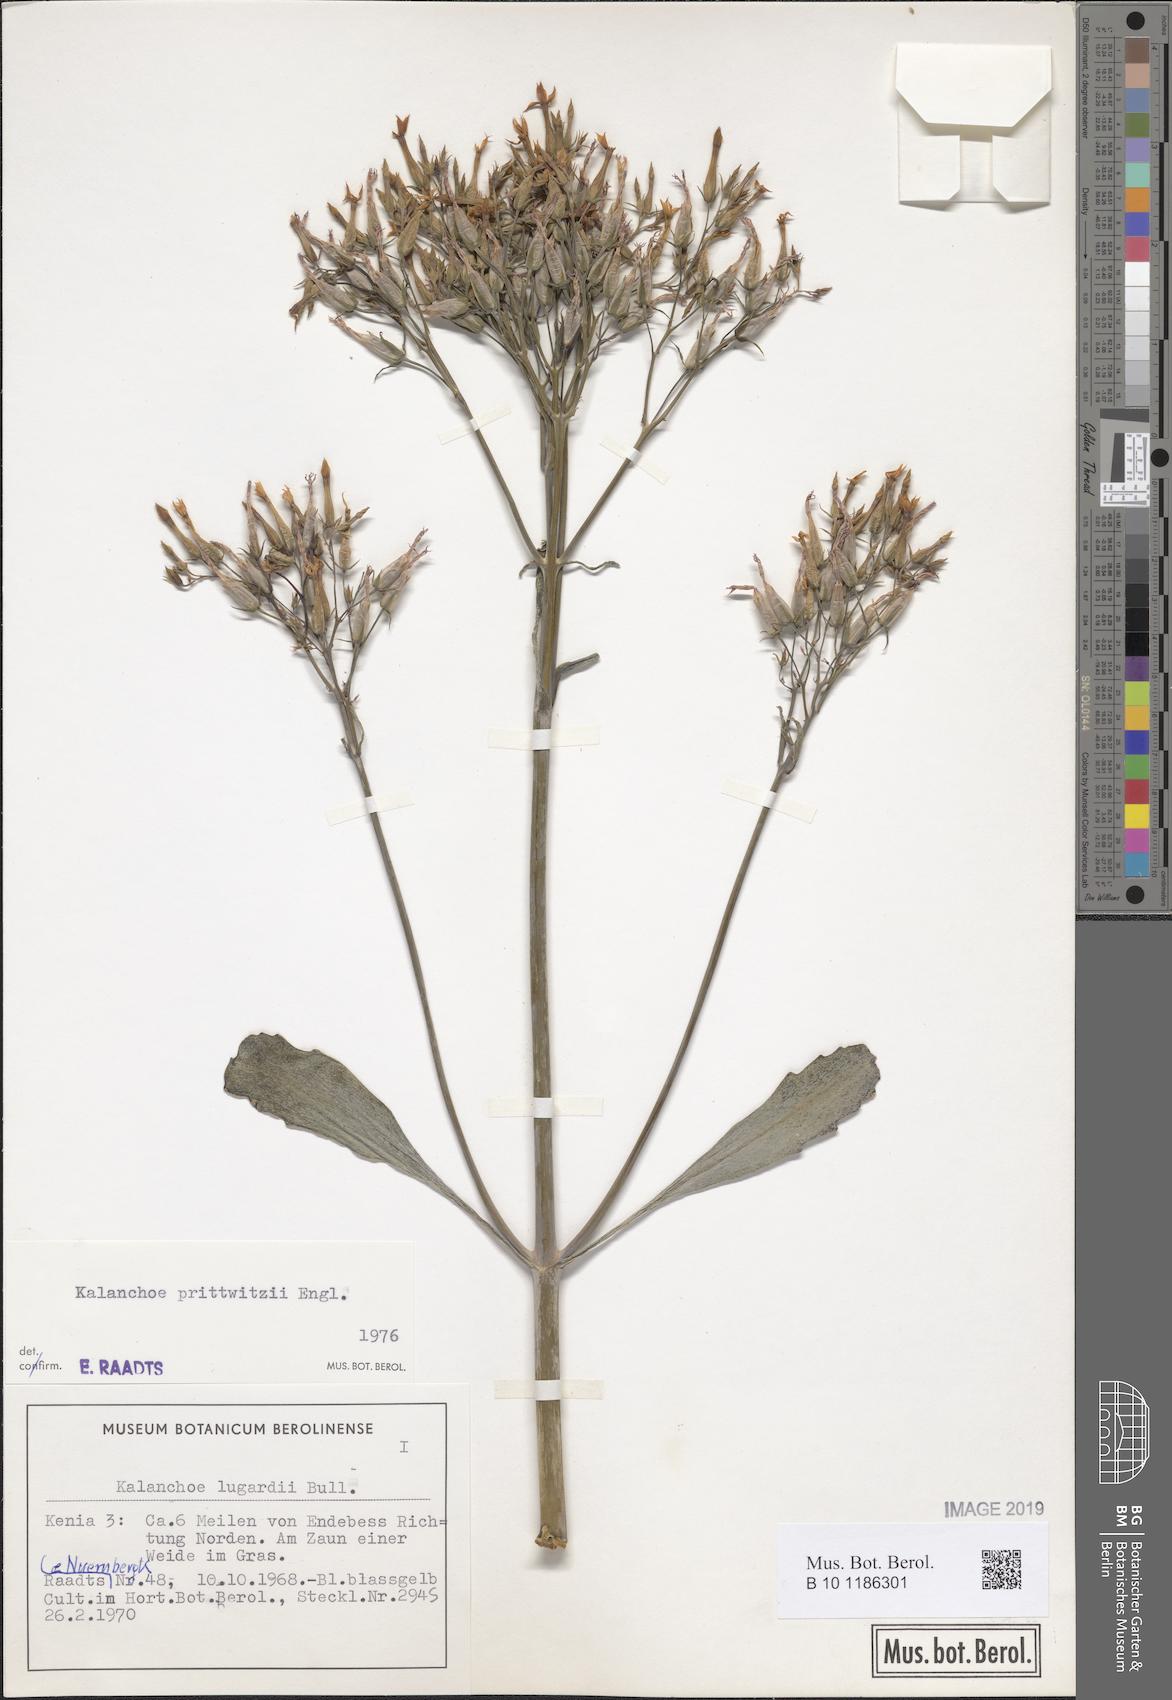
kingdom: Plantae
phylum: Tracheophyta
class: Magnoliopsida
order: Saxifragales
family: Crassulaceae
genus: Kalanchoe
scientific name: Kalanchoe prittwitzii
